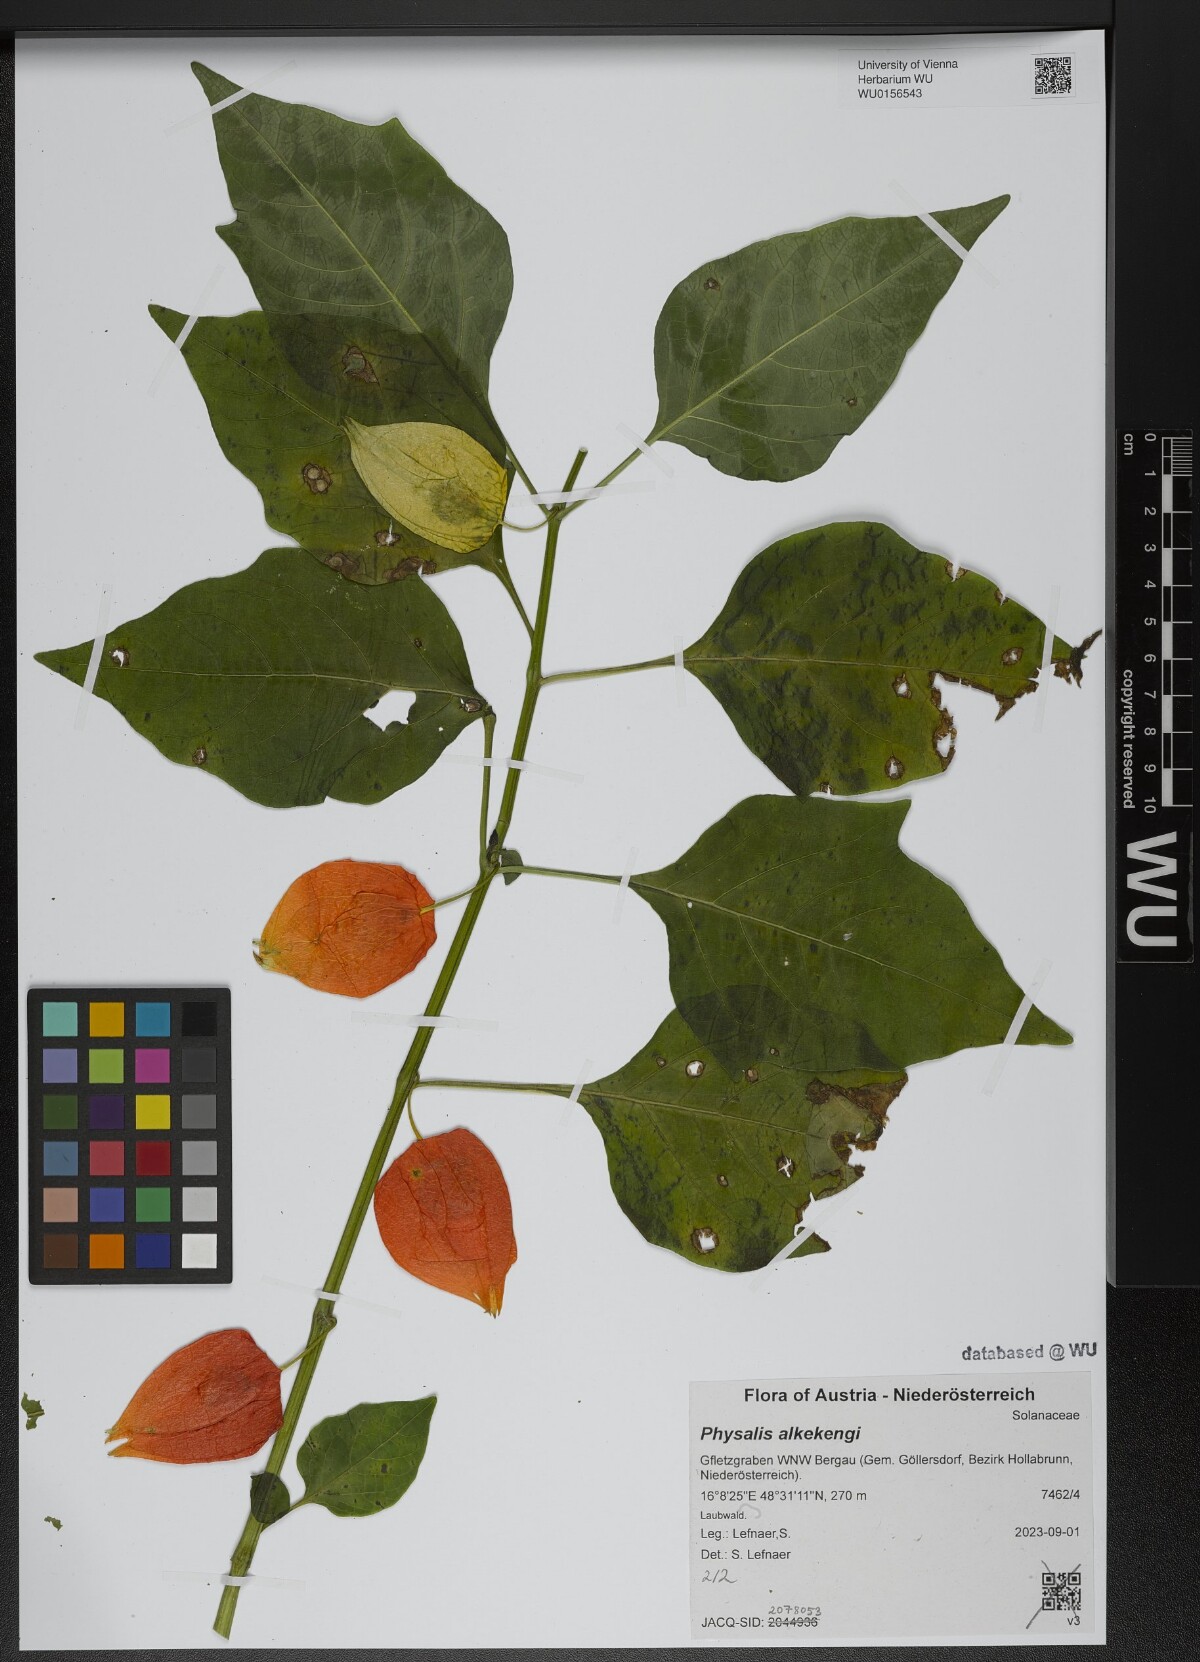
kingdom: Plantae
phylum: Tracheophyta
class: Magnoliopsida
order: Solanales
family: Solanaceae
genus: Alkekengi
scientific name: Alkekengi officinarum
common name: Japanese-lantern
